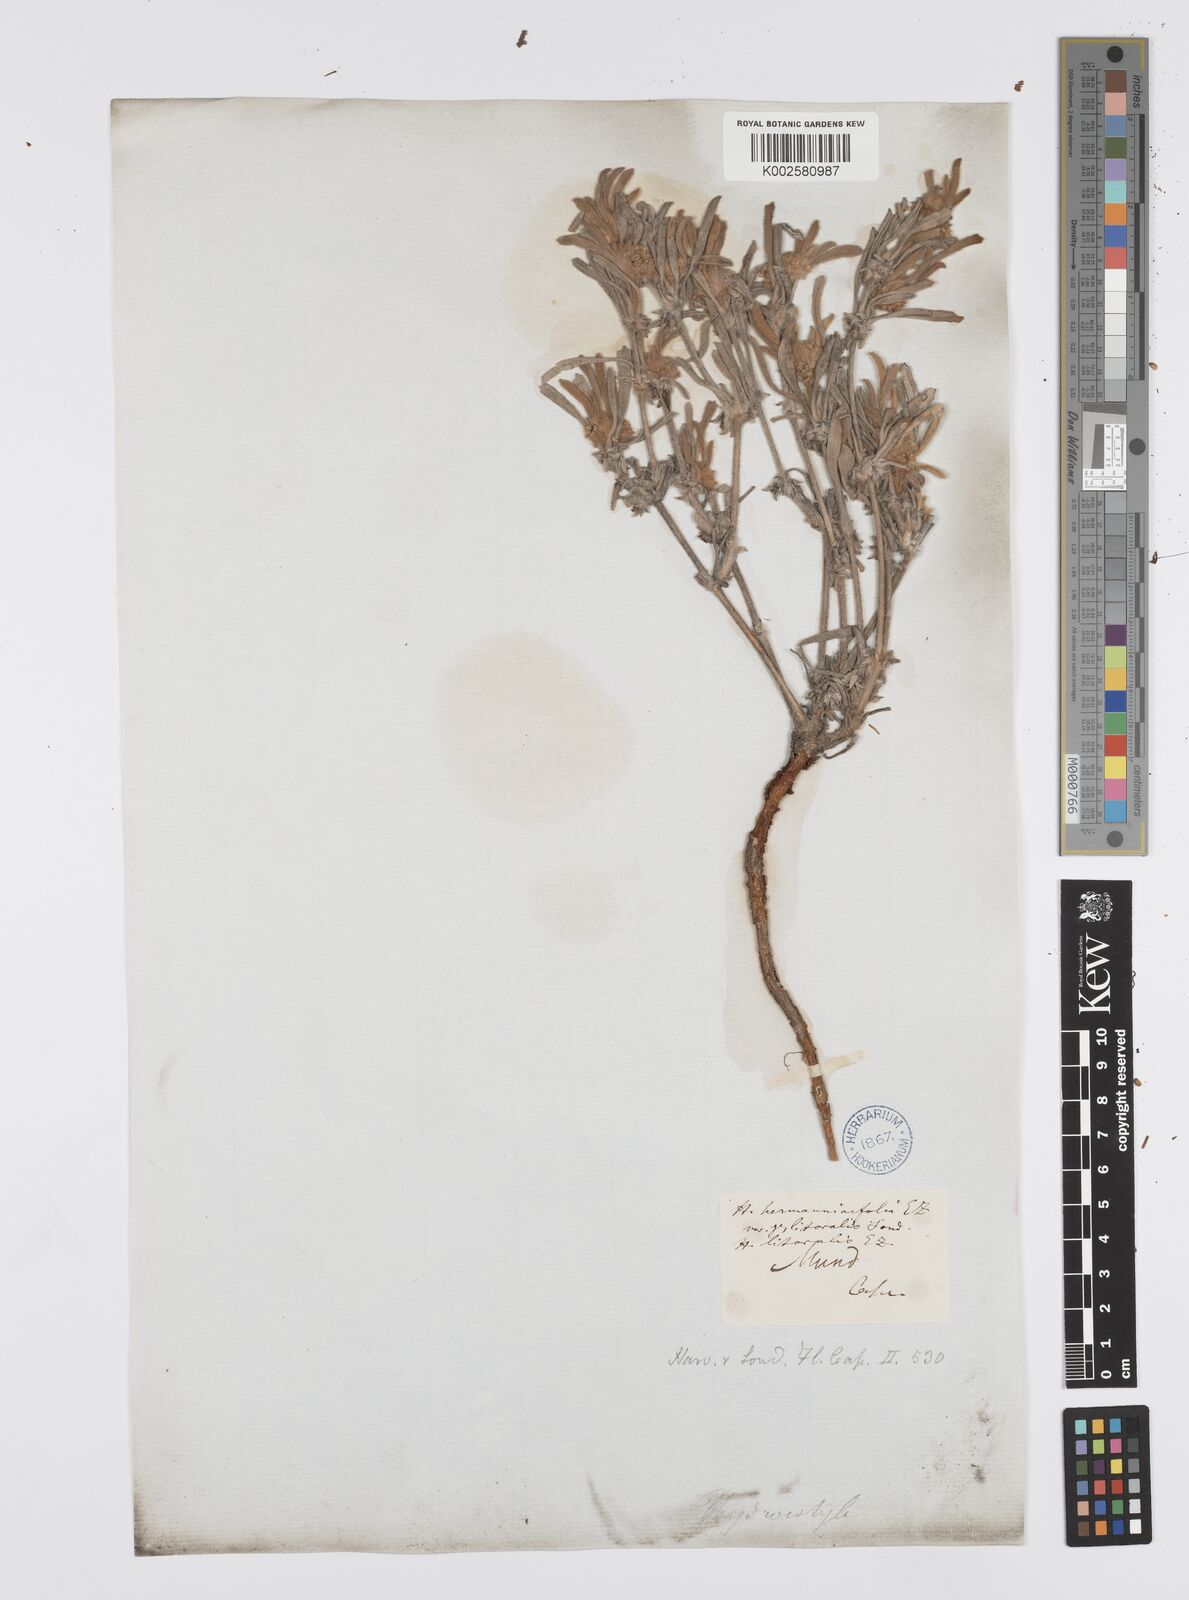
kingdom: Plantae
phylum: Tracheophyta
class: Magnoliopsida
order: Apiales
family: Apiaceae
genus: Centella
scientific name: Centella tridentata
